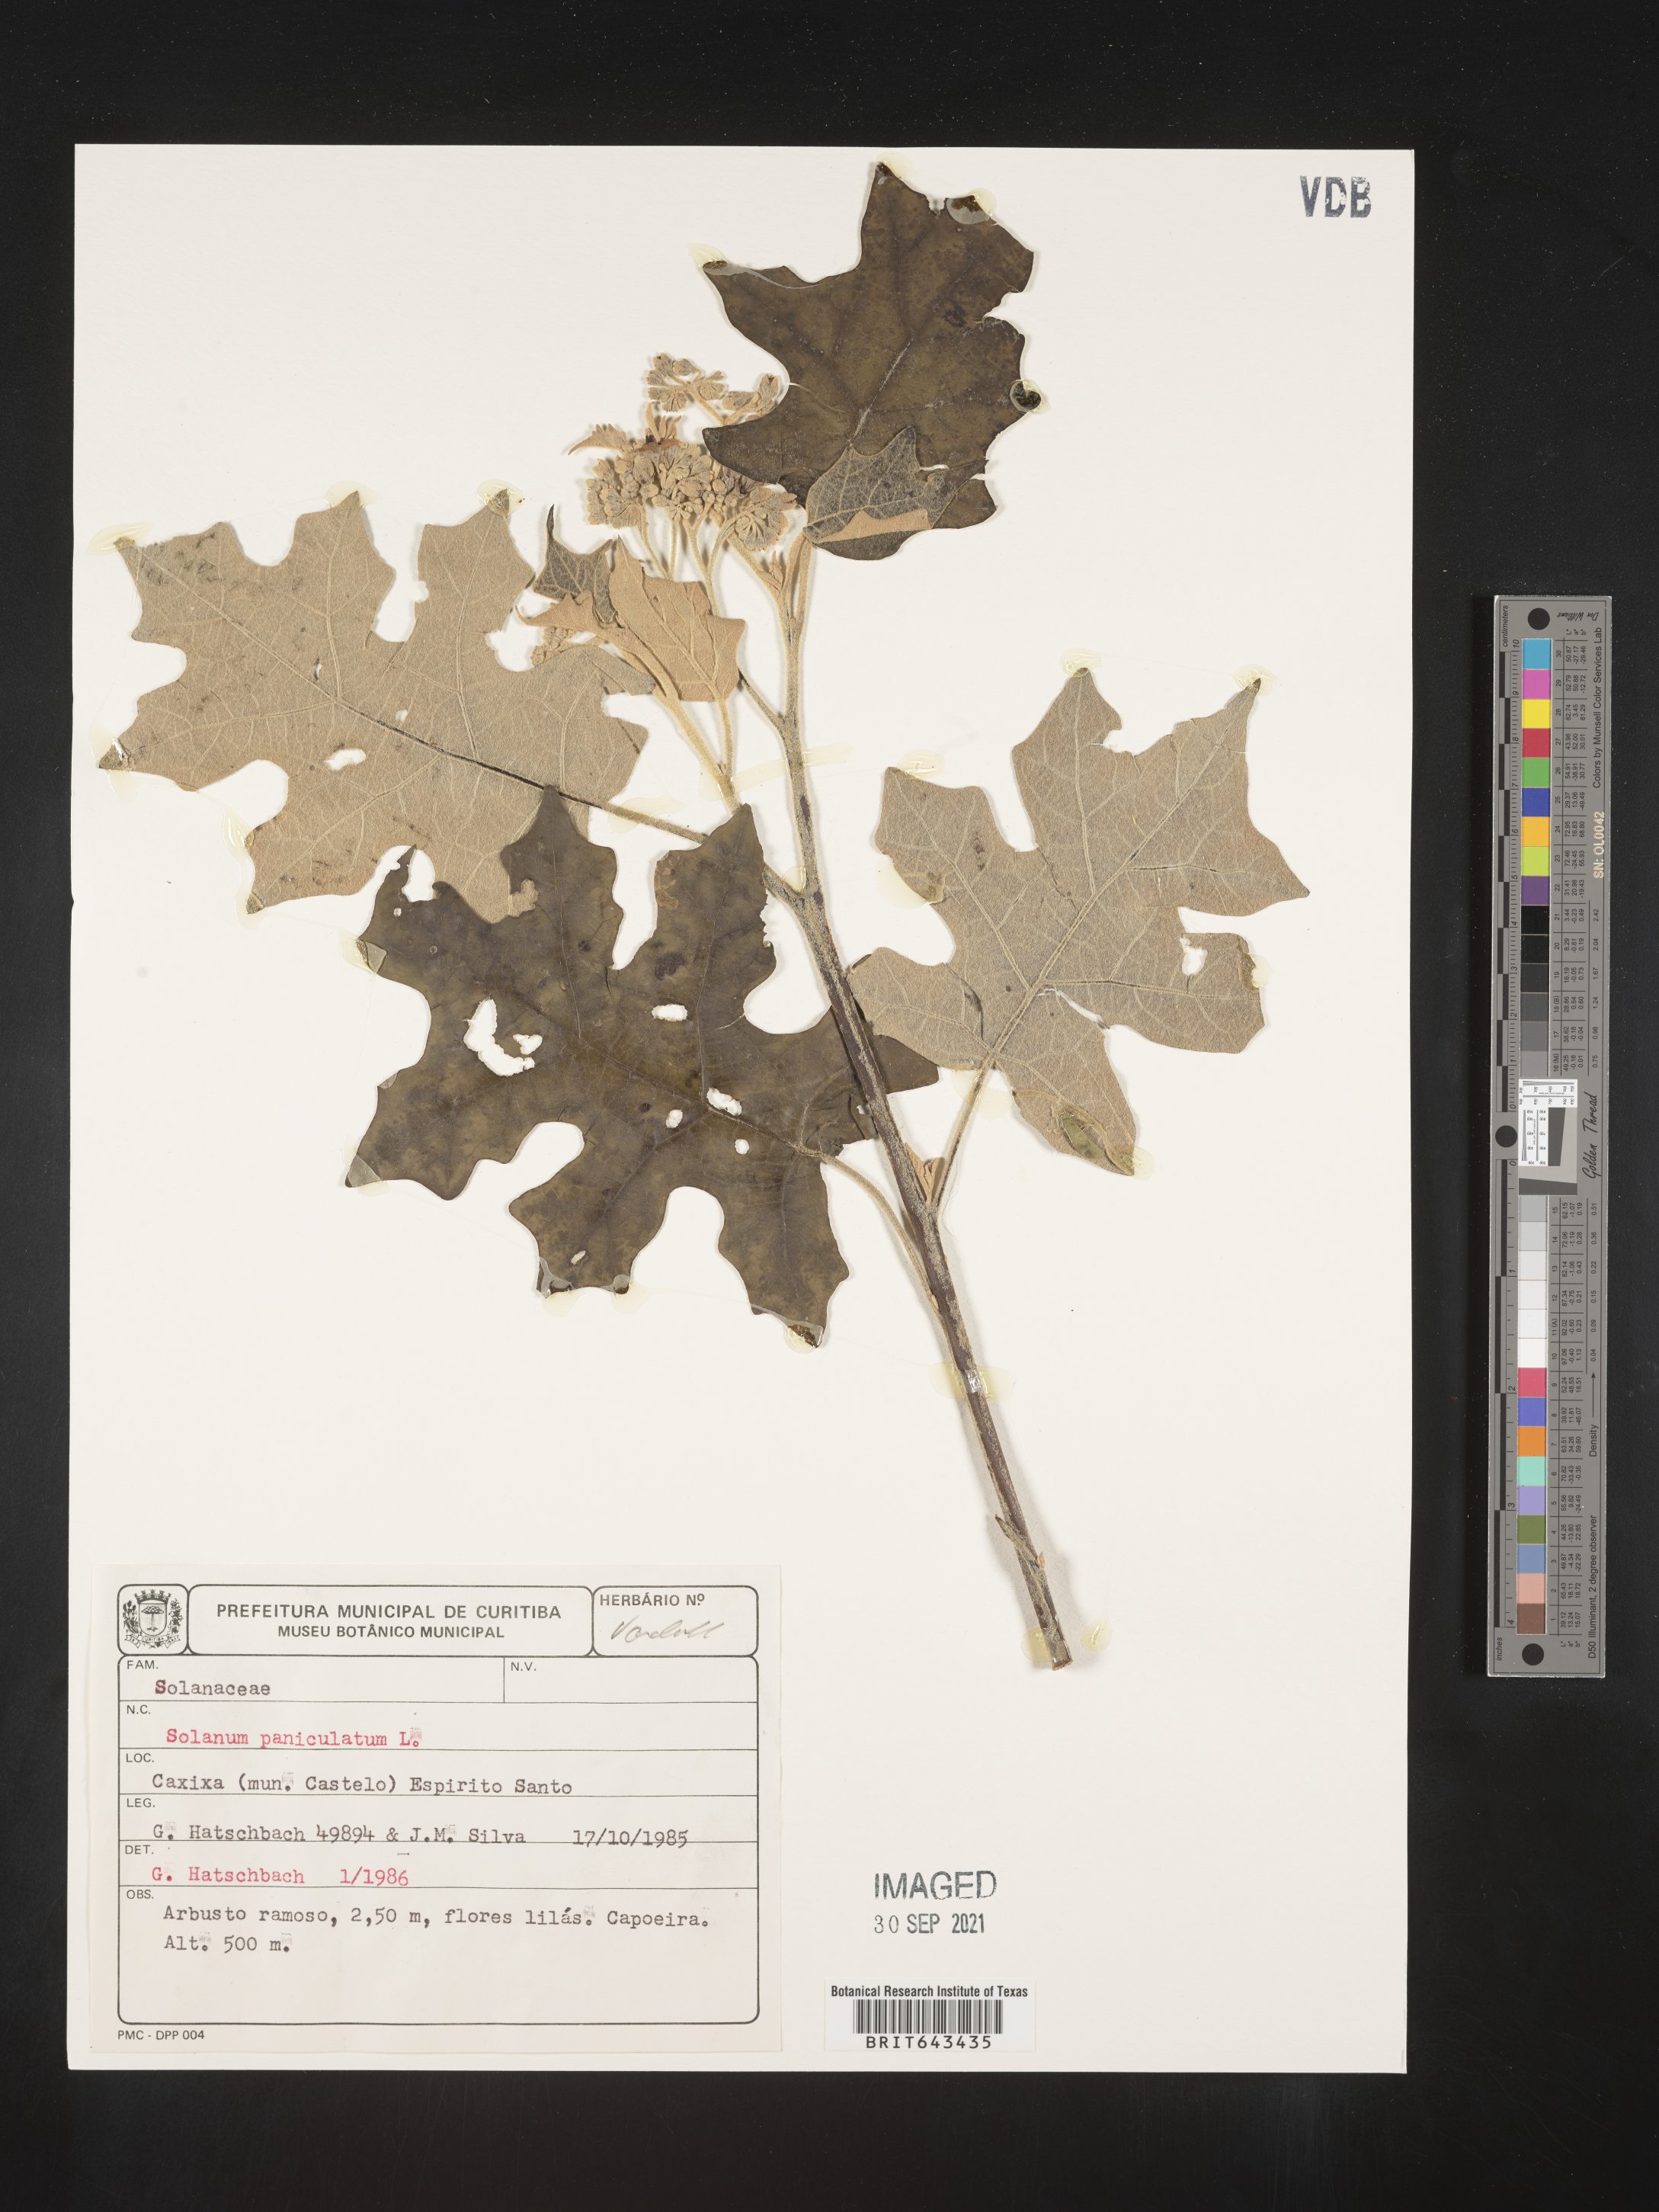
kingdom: Plantae
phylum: Tracheophyta
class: Magnoliopsida
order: Solanales
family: Solanaceae
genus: Solanum
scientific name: Solanum
